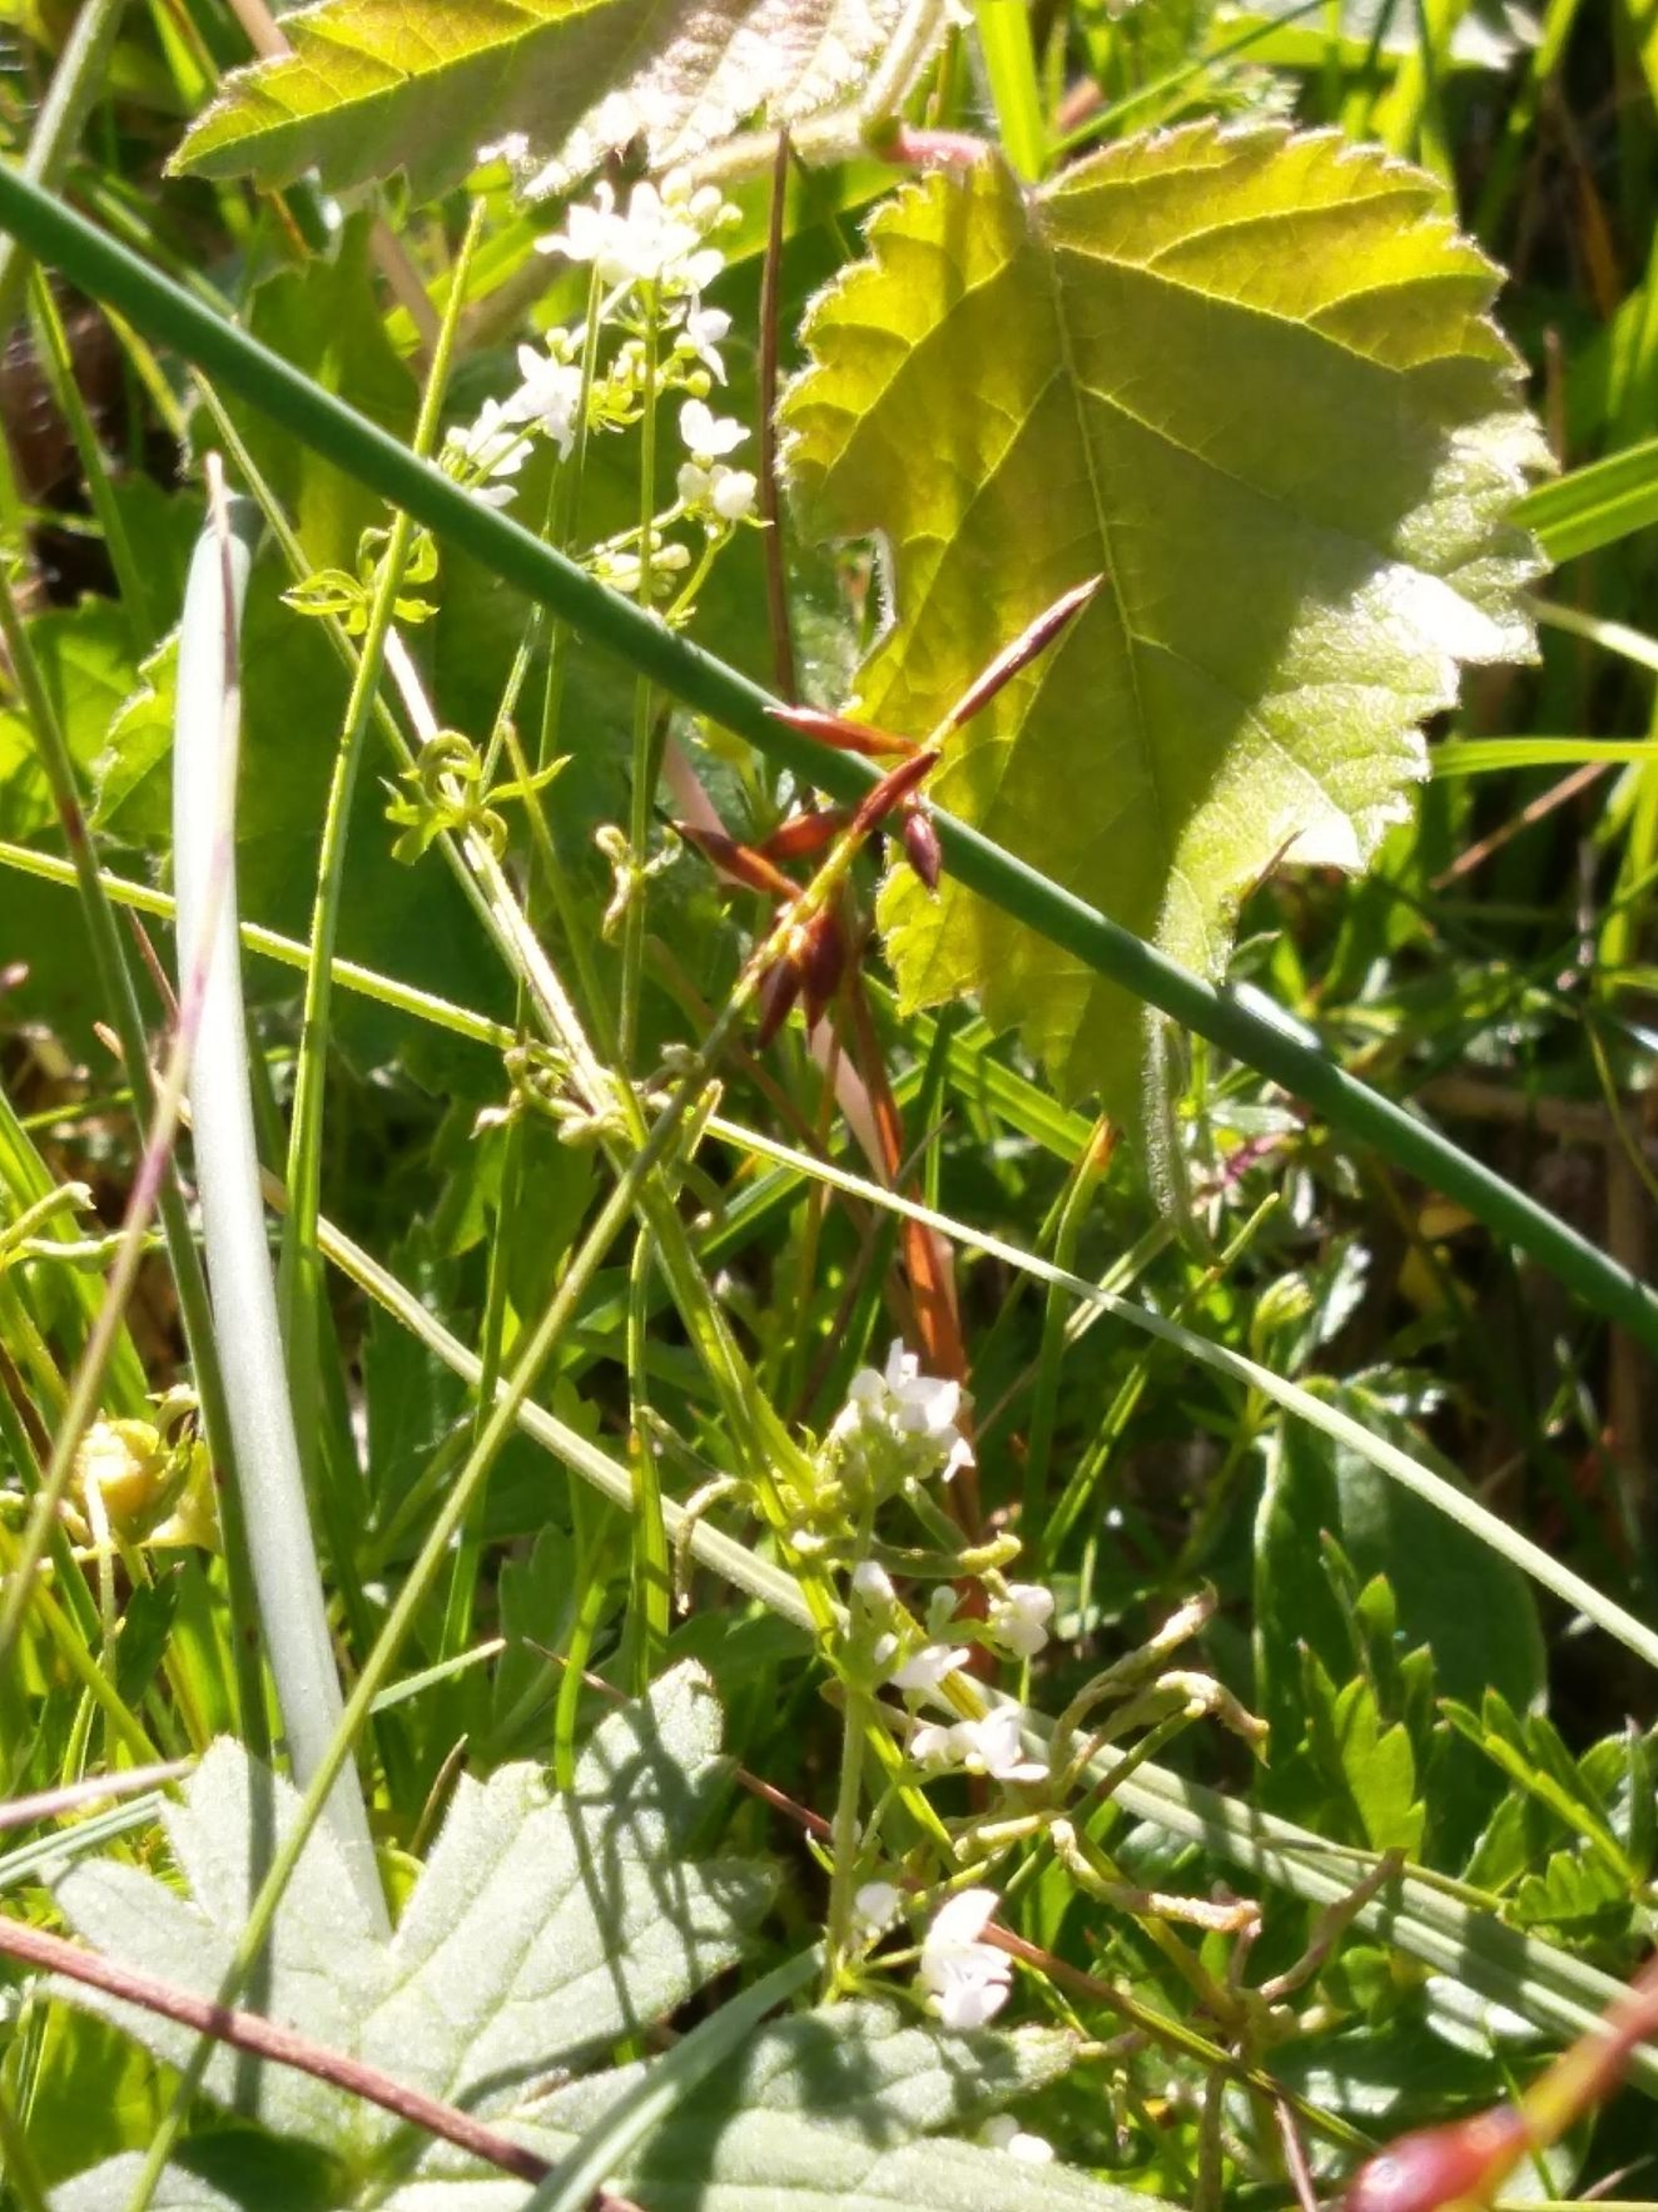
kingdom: Plantae
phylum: Tracheophyta
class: Liliopsida
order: Poales
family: Cyperaceae
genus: Carex
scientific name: Carex pulicaris
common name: Loppe-star
